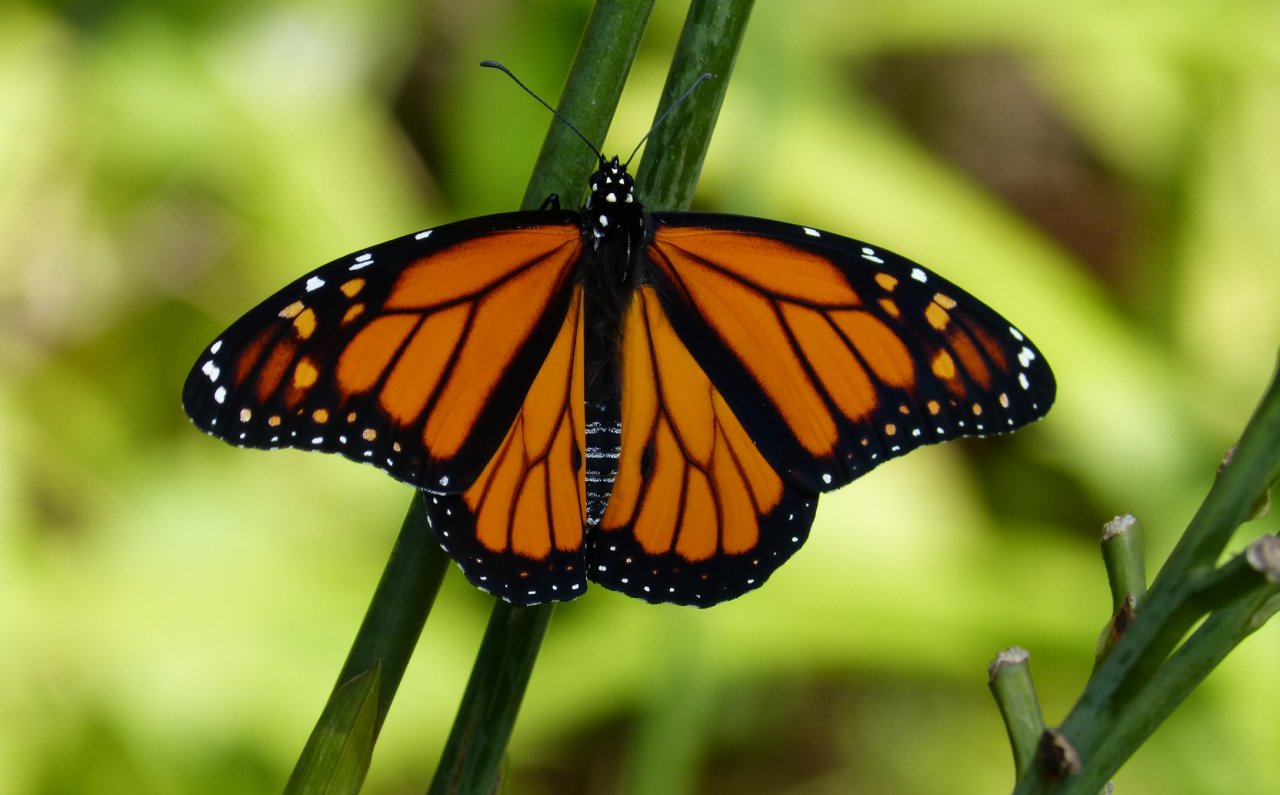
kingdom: Animalia
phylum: Arthropoda
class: Insecta
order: Lepidoptera
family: Nymphalidae
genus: Danaus
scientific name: Danaus plexippus
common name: Monarch
